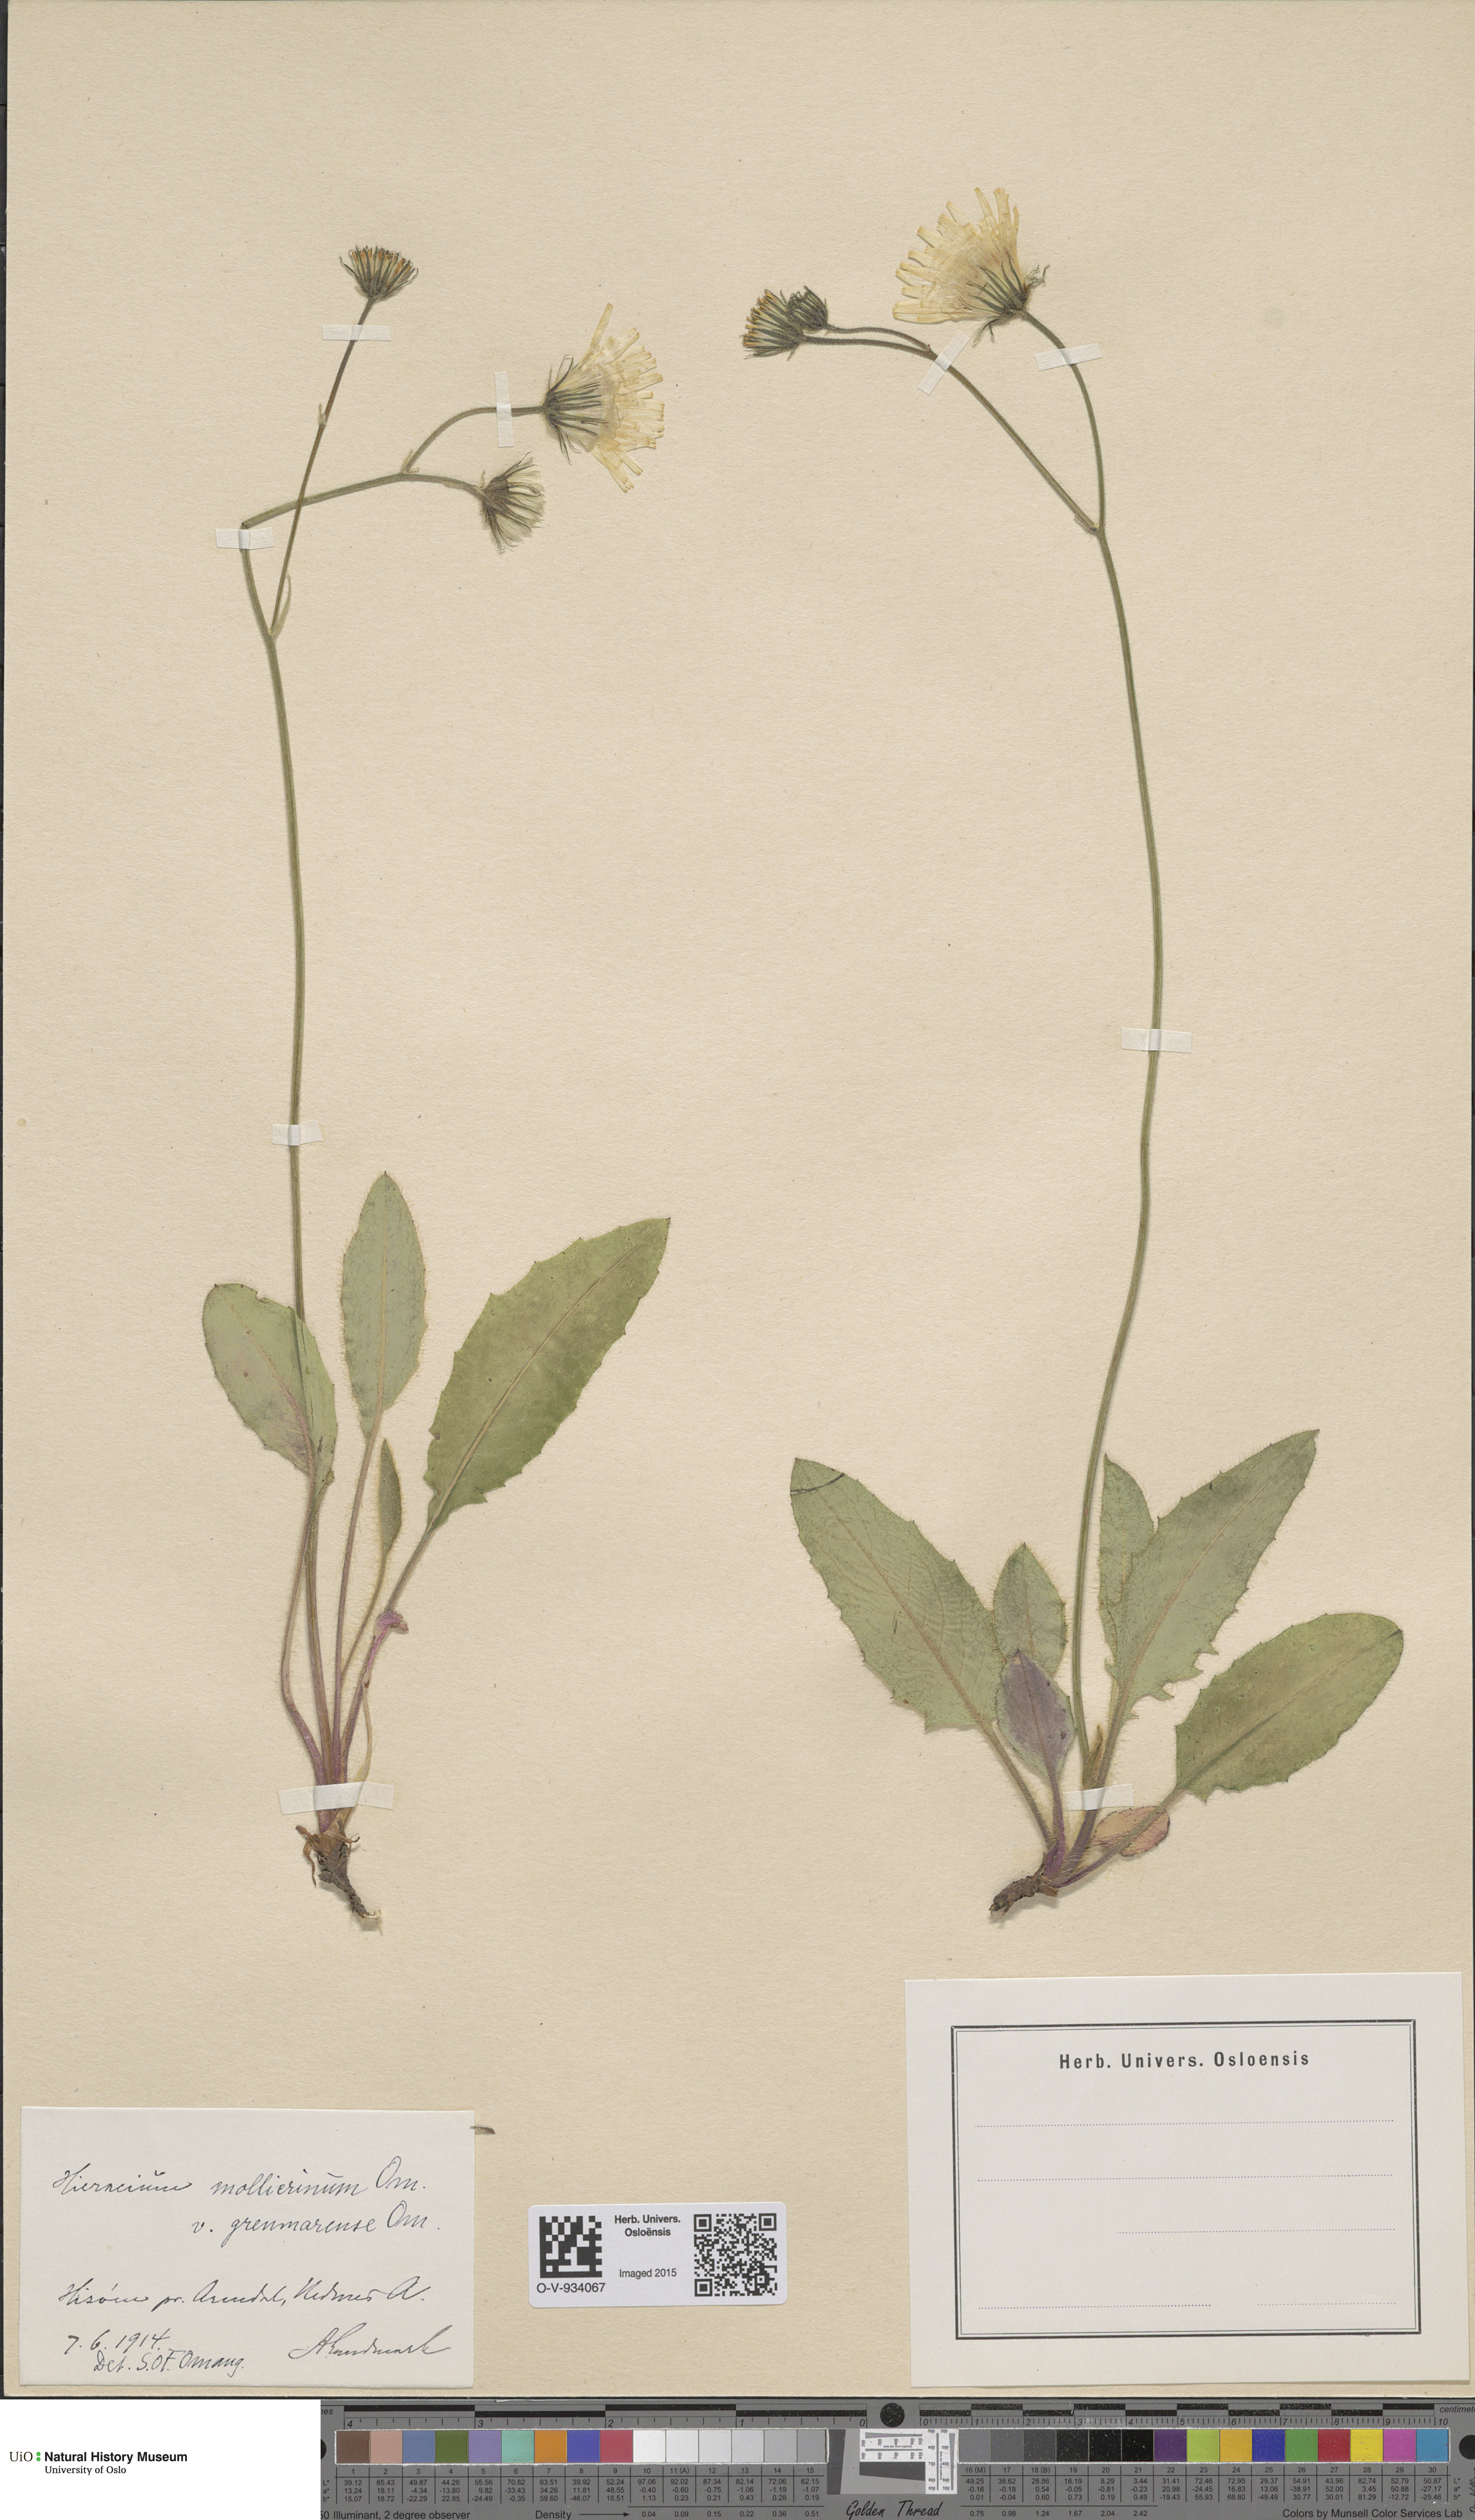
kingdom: Plantae
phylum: Tracheophyta
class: Magnoliopsida
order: Asterales
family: Asteraceae
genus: Hieracium
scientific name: Hieracium schmidtii
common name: Schmidt's hawkweed
